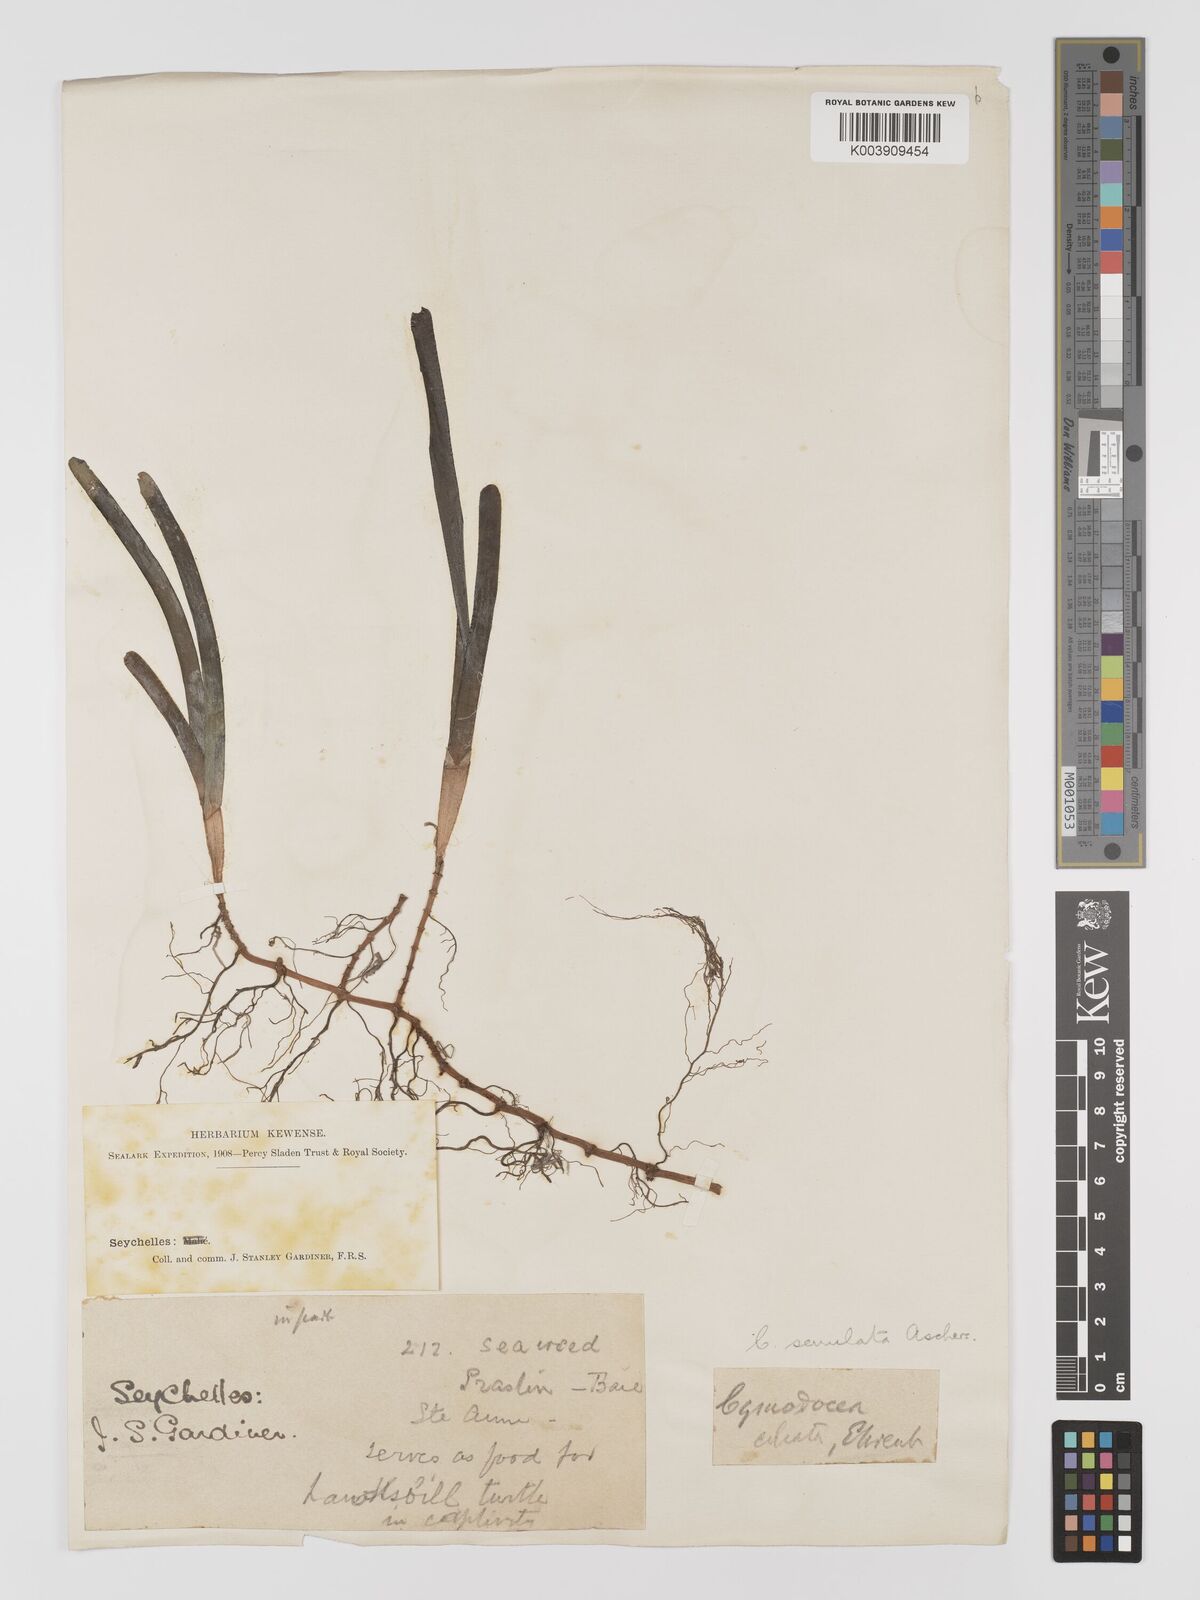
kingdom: Plantae
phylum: Tracheophyta
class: Liliopsida
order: Alismatales
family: Cymodoceaceae
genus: Oceana
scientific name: Oceana serrulata
